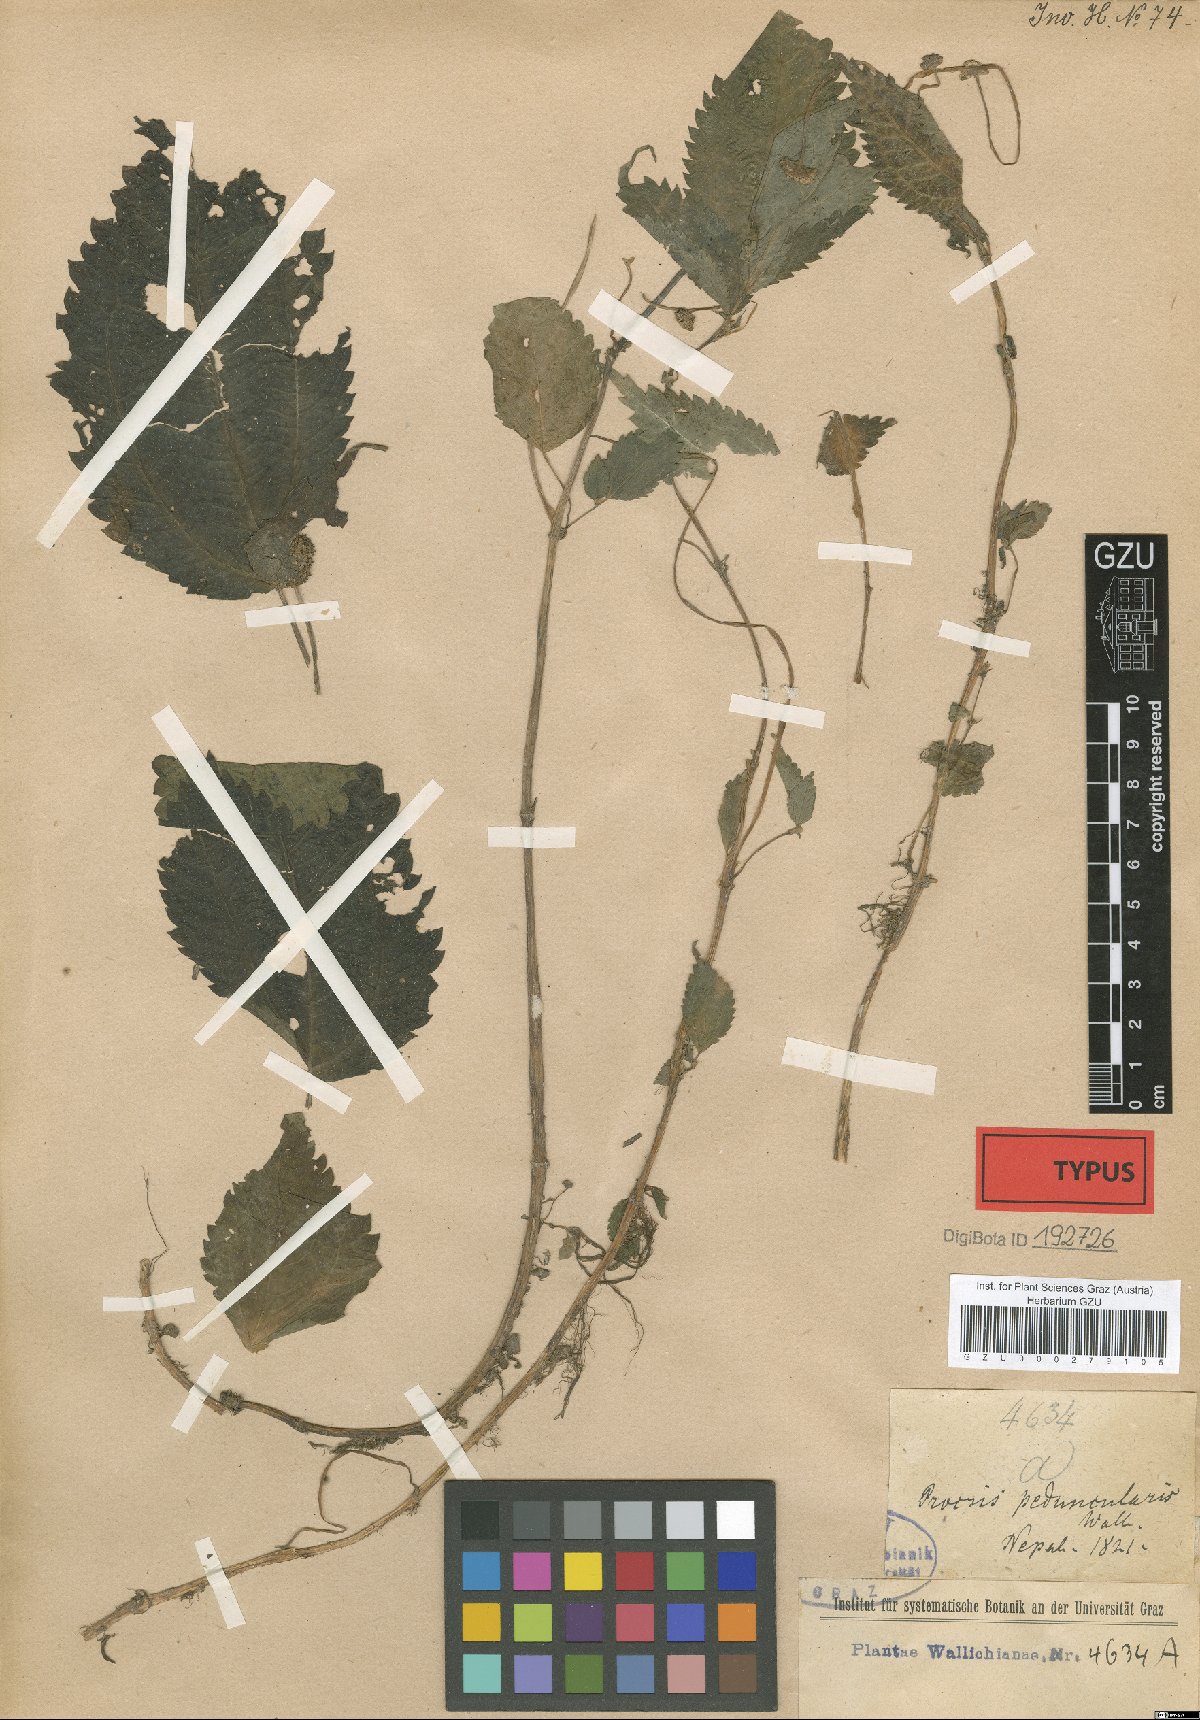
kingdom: Plantae
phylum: Tracheophyta
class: Magnoliopsida
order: Rosales
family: Urticaceae
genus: Lecanthus
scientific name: Lecanthus peduncularis
